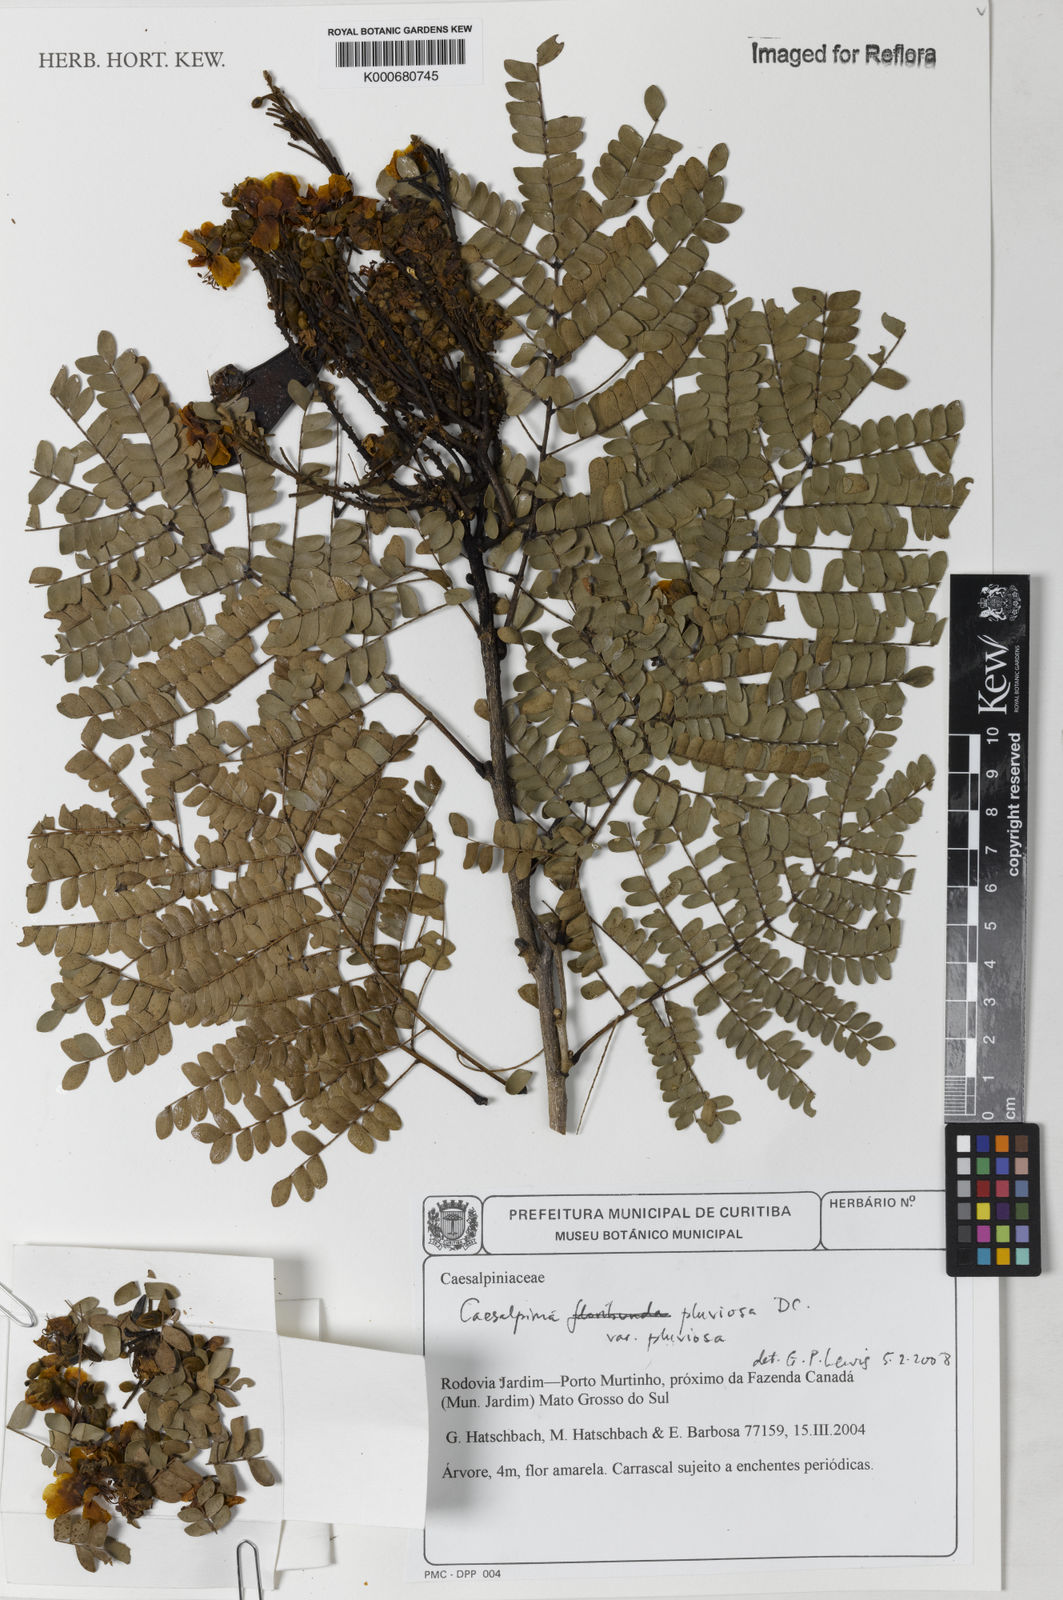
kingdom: Plantae
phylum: Tracheophyta
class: Magnoliopsida
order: Fabales
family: Fabaceae
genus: Cenostigma
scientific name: Cenostigma pluviosum
